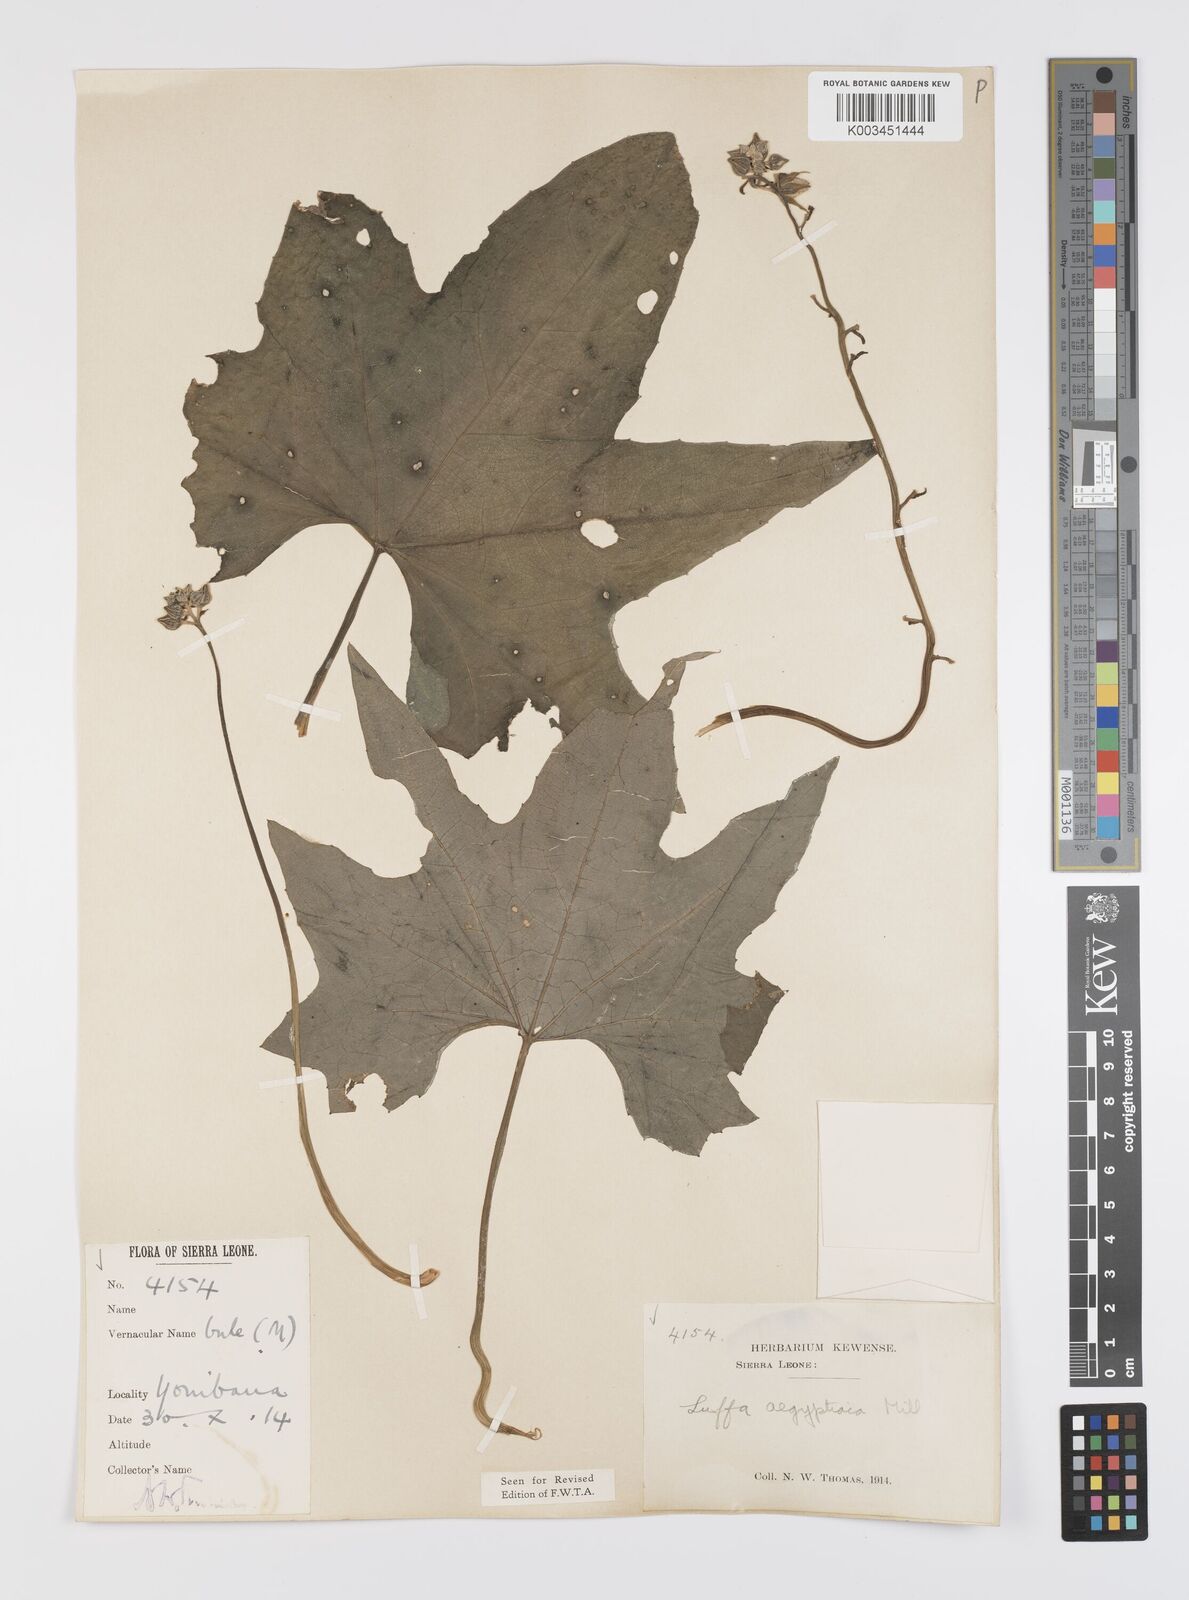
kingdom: Plantae
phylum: Tracheophyta
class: Magnoliopsida
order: Cucurbitales
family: Cucurbitaceae
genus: Luffa
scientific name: Luffa aegyptiaca
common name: Sponge gourd
